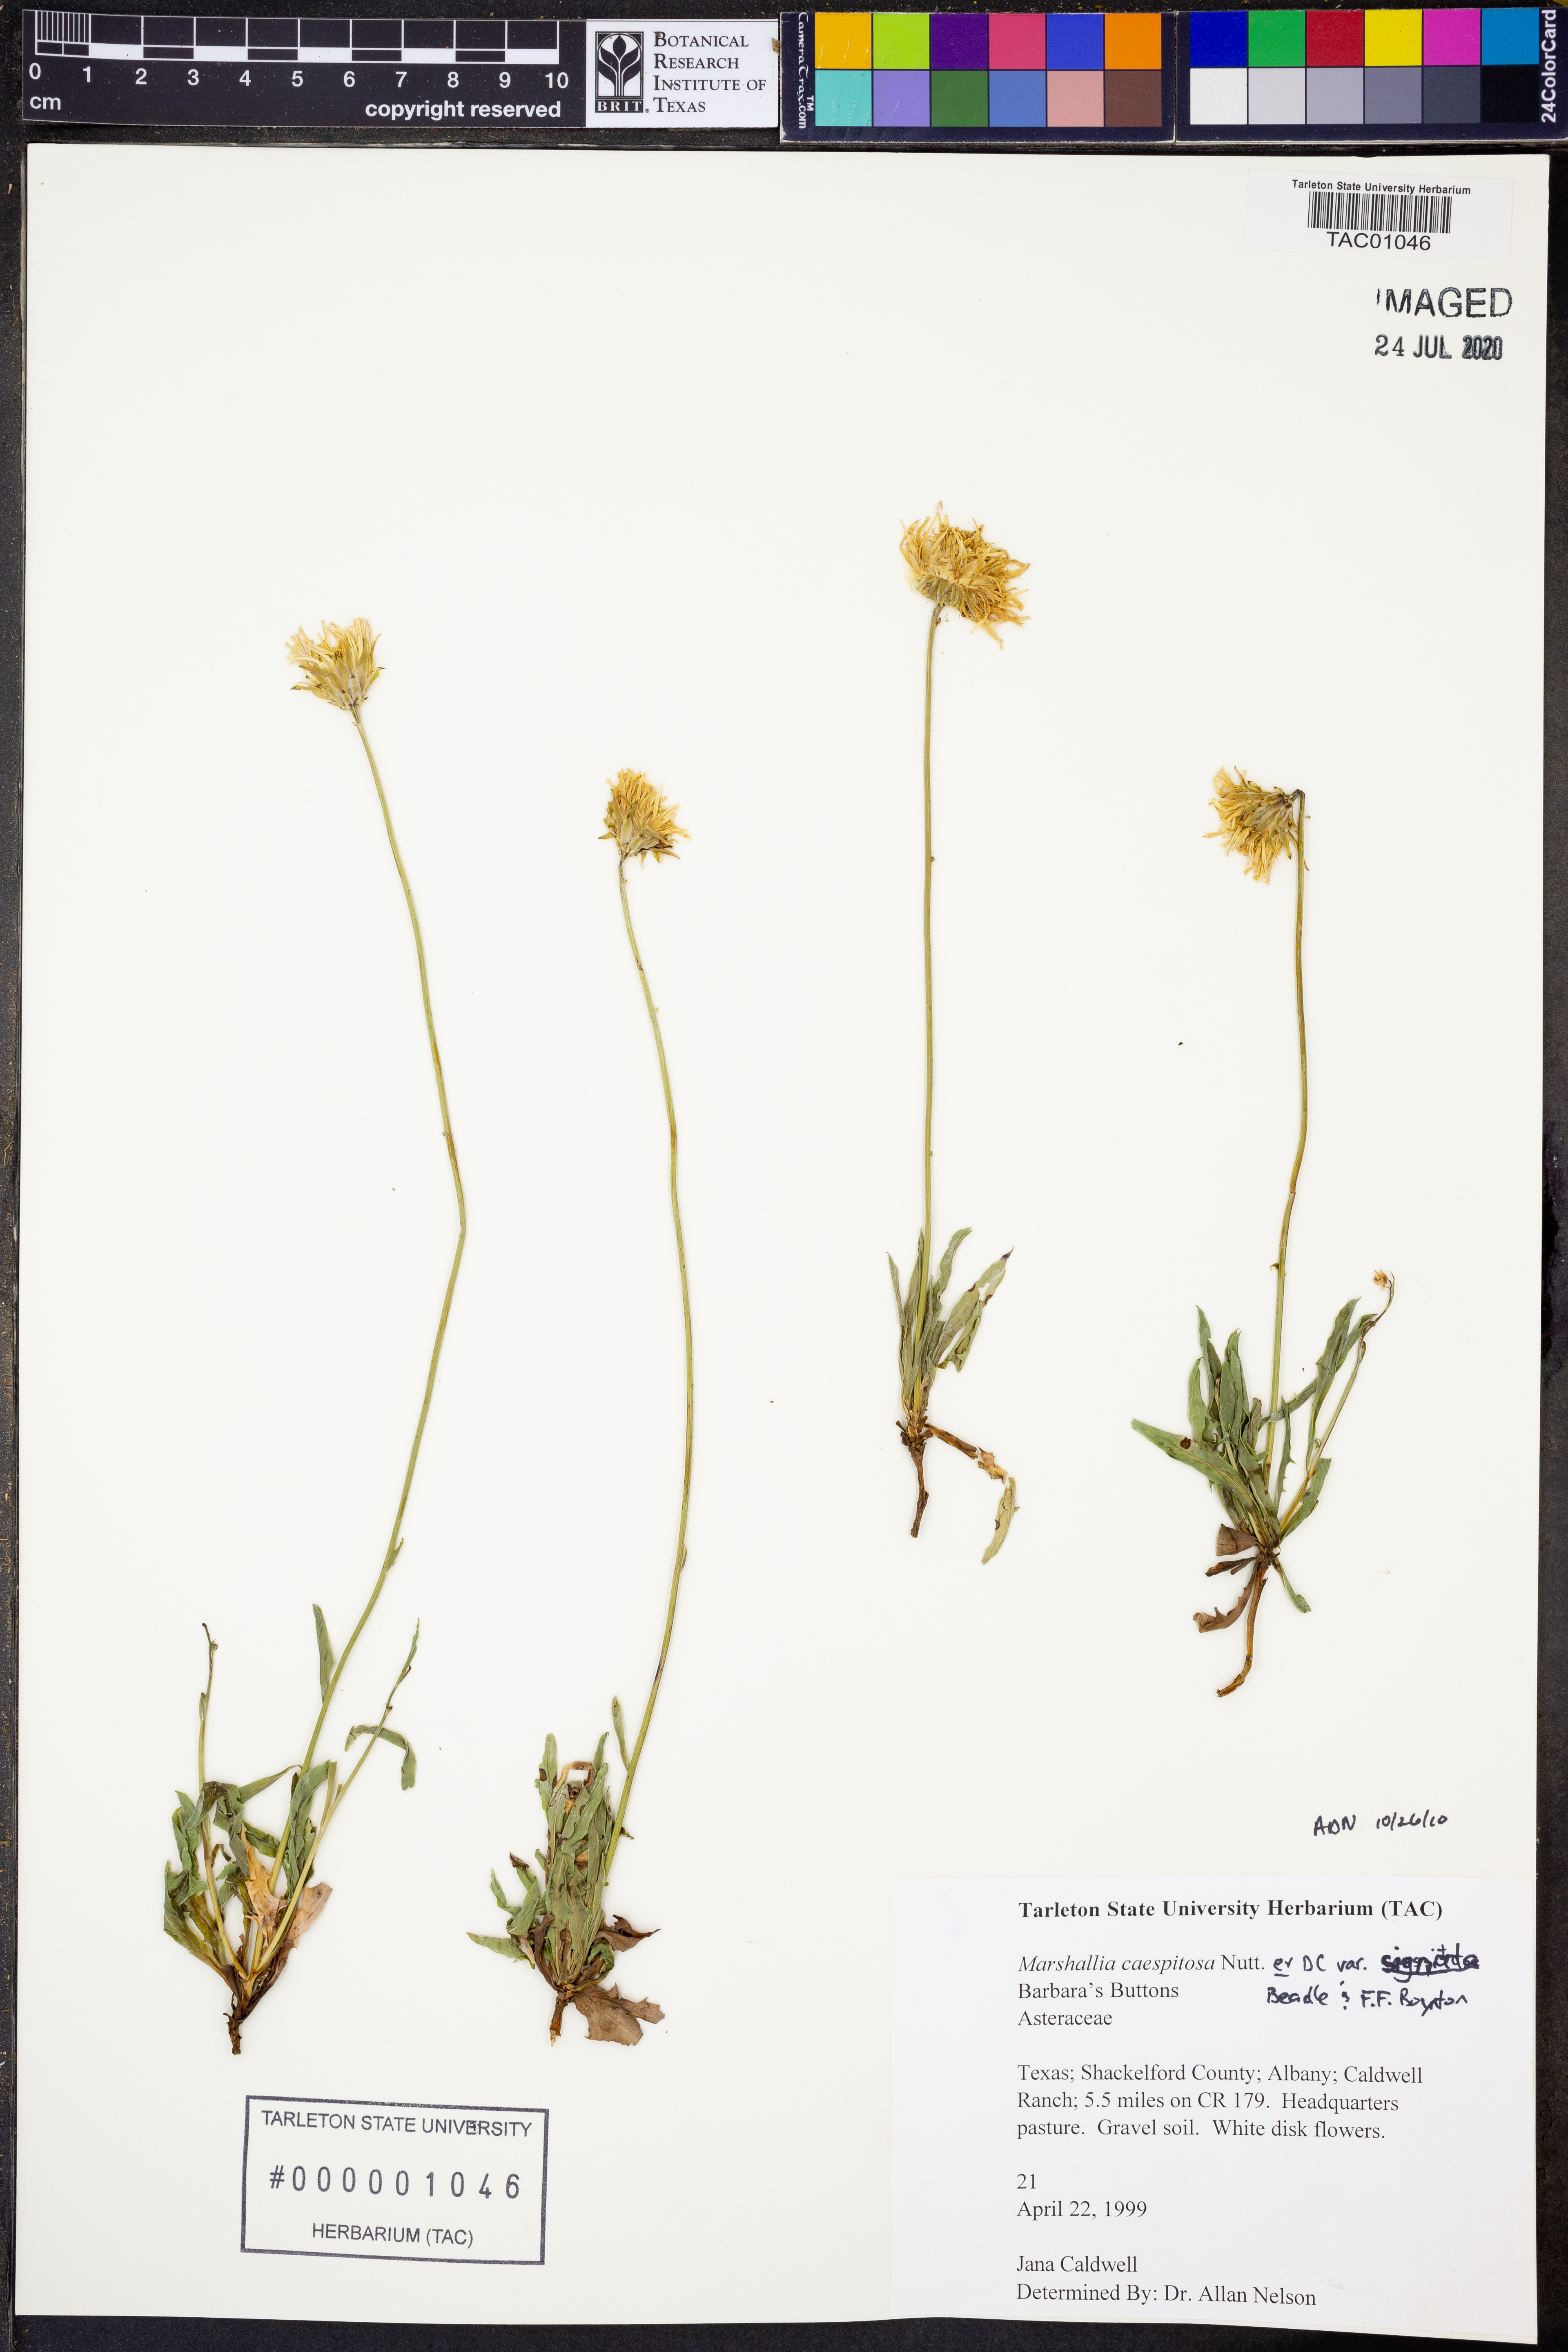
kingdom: Plantae
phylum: Tracheophyta
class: Magnoliopsida
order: Asterales
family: Asteraceae
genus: Marshallia
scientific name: Marshallia caespitosa
